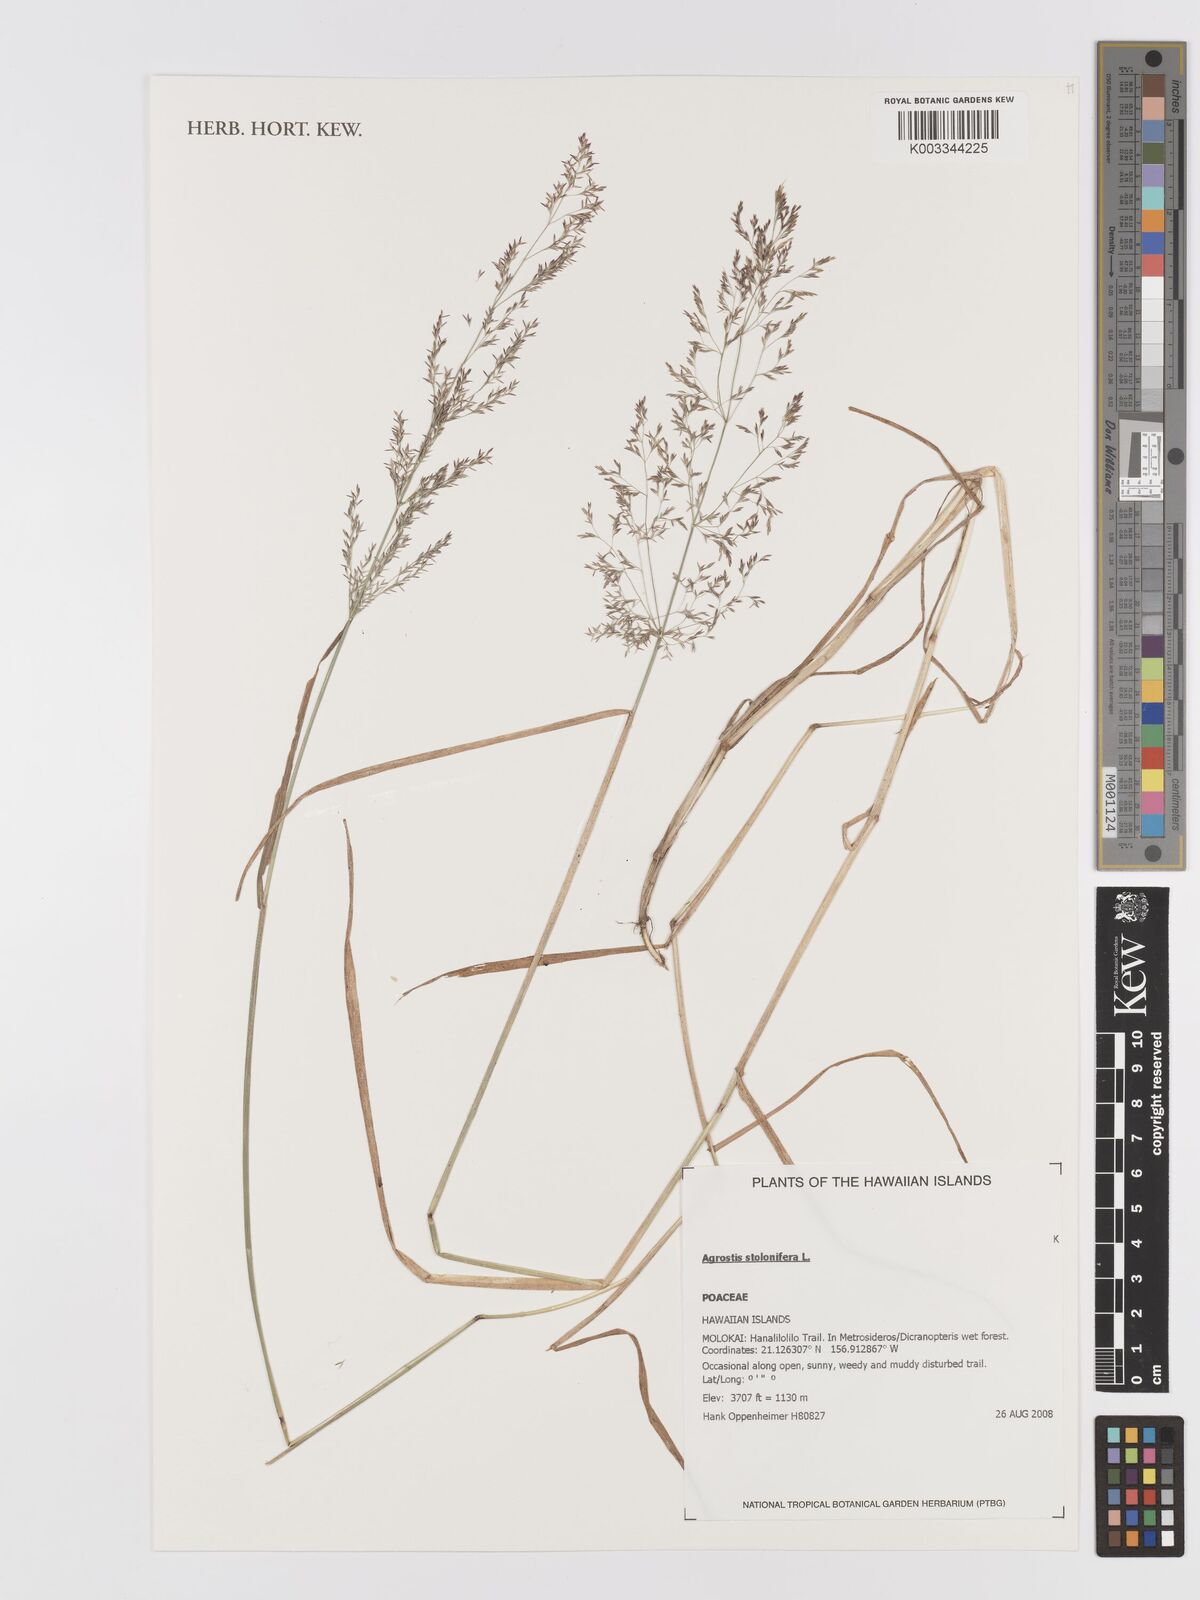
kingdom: Plantae
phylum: Tracheophyta
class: Liliopsida
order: Poales
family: Poaceae
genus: Agrostis
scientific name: Agrostis stolonifera
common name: Creeping bentgrass
